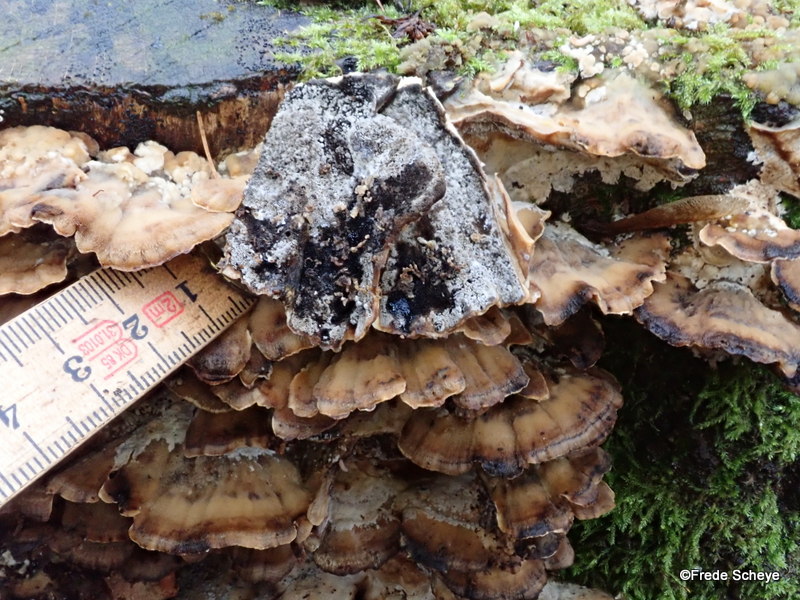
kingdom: Fungi
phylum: Basidiomycota
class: Agaricomycetes
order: Polyporales
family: Phanerochaetaceae
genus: Bjerkandera
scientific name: Bjerkandera adusta
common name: sveden sodporesvamp
